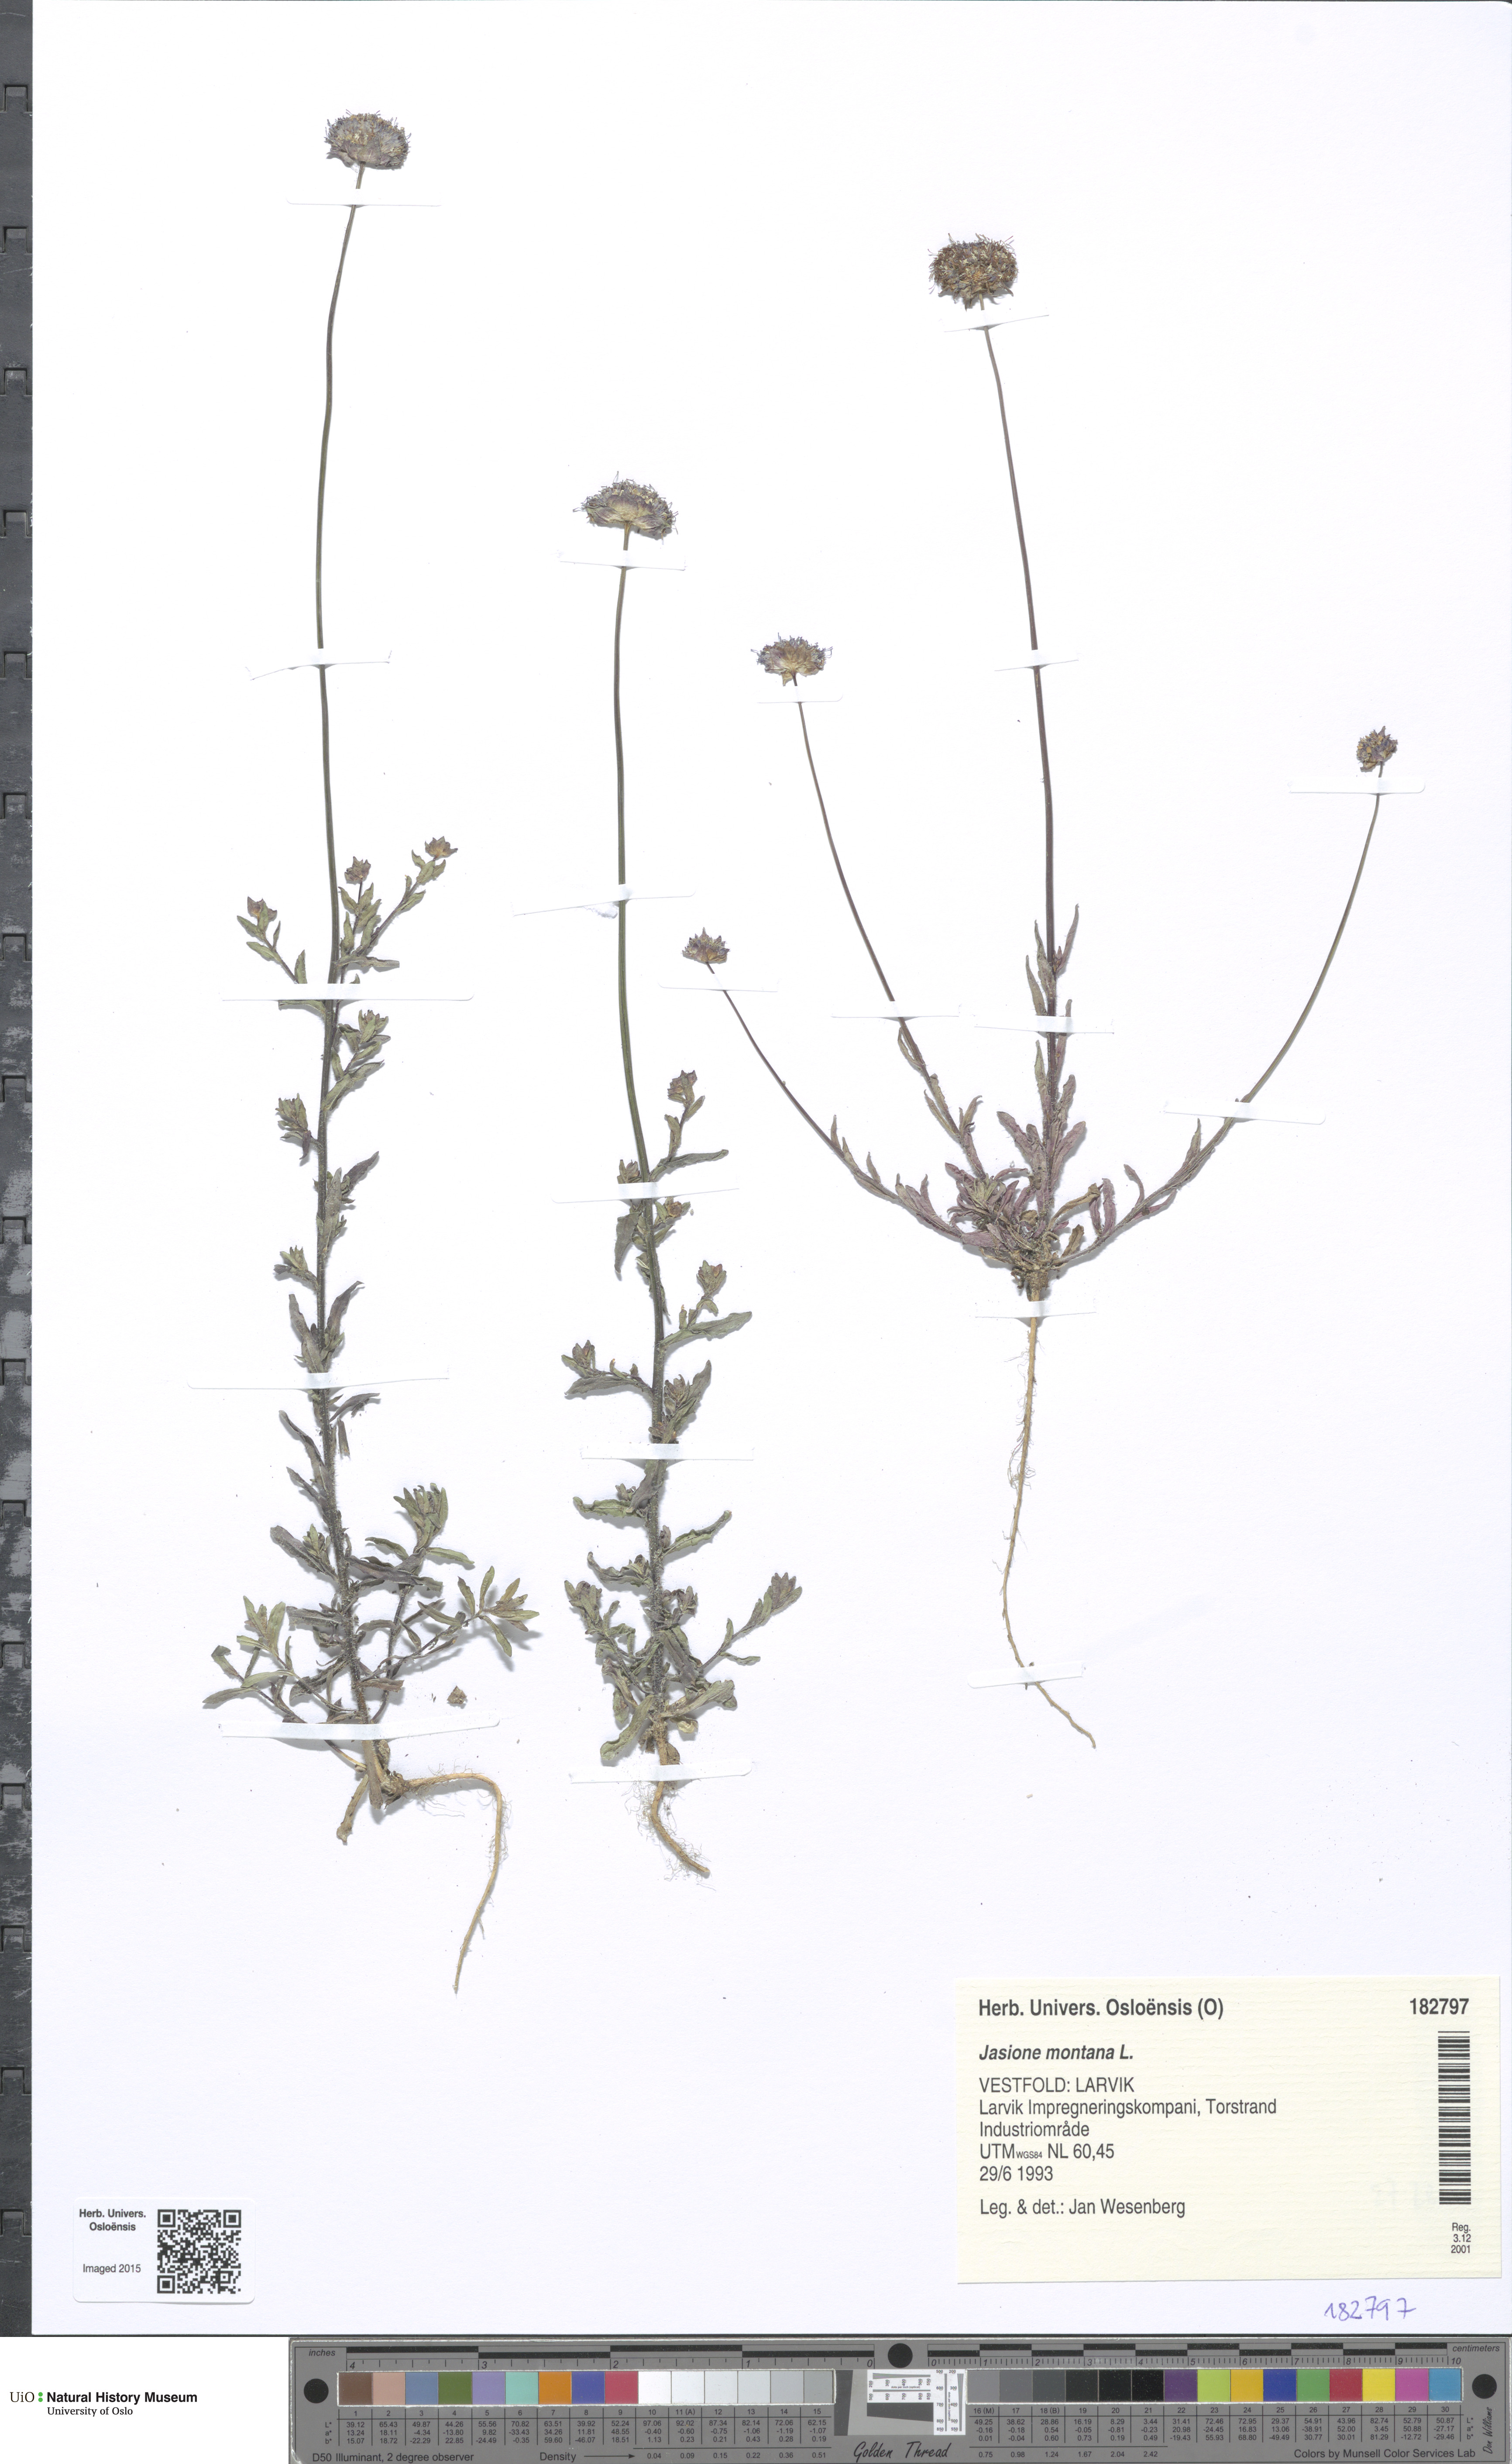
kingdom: Plantae
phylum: Tracheophyta
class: Magnoliopsida
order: Asterales
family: Campanulaceae
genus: Jasione
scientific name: Jasione montana
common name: Sheep's-bit
